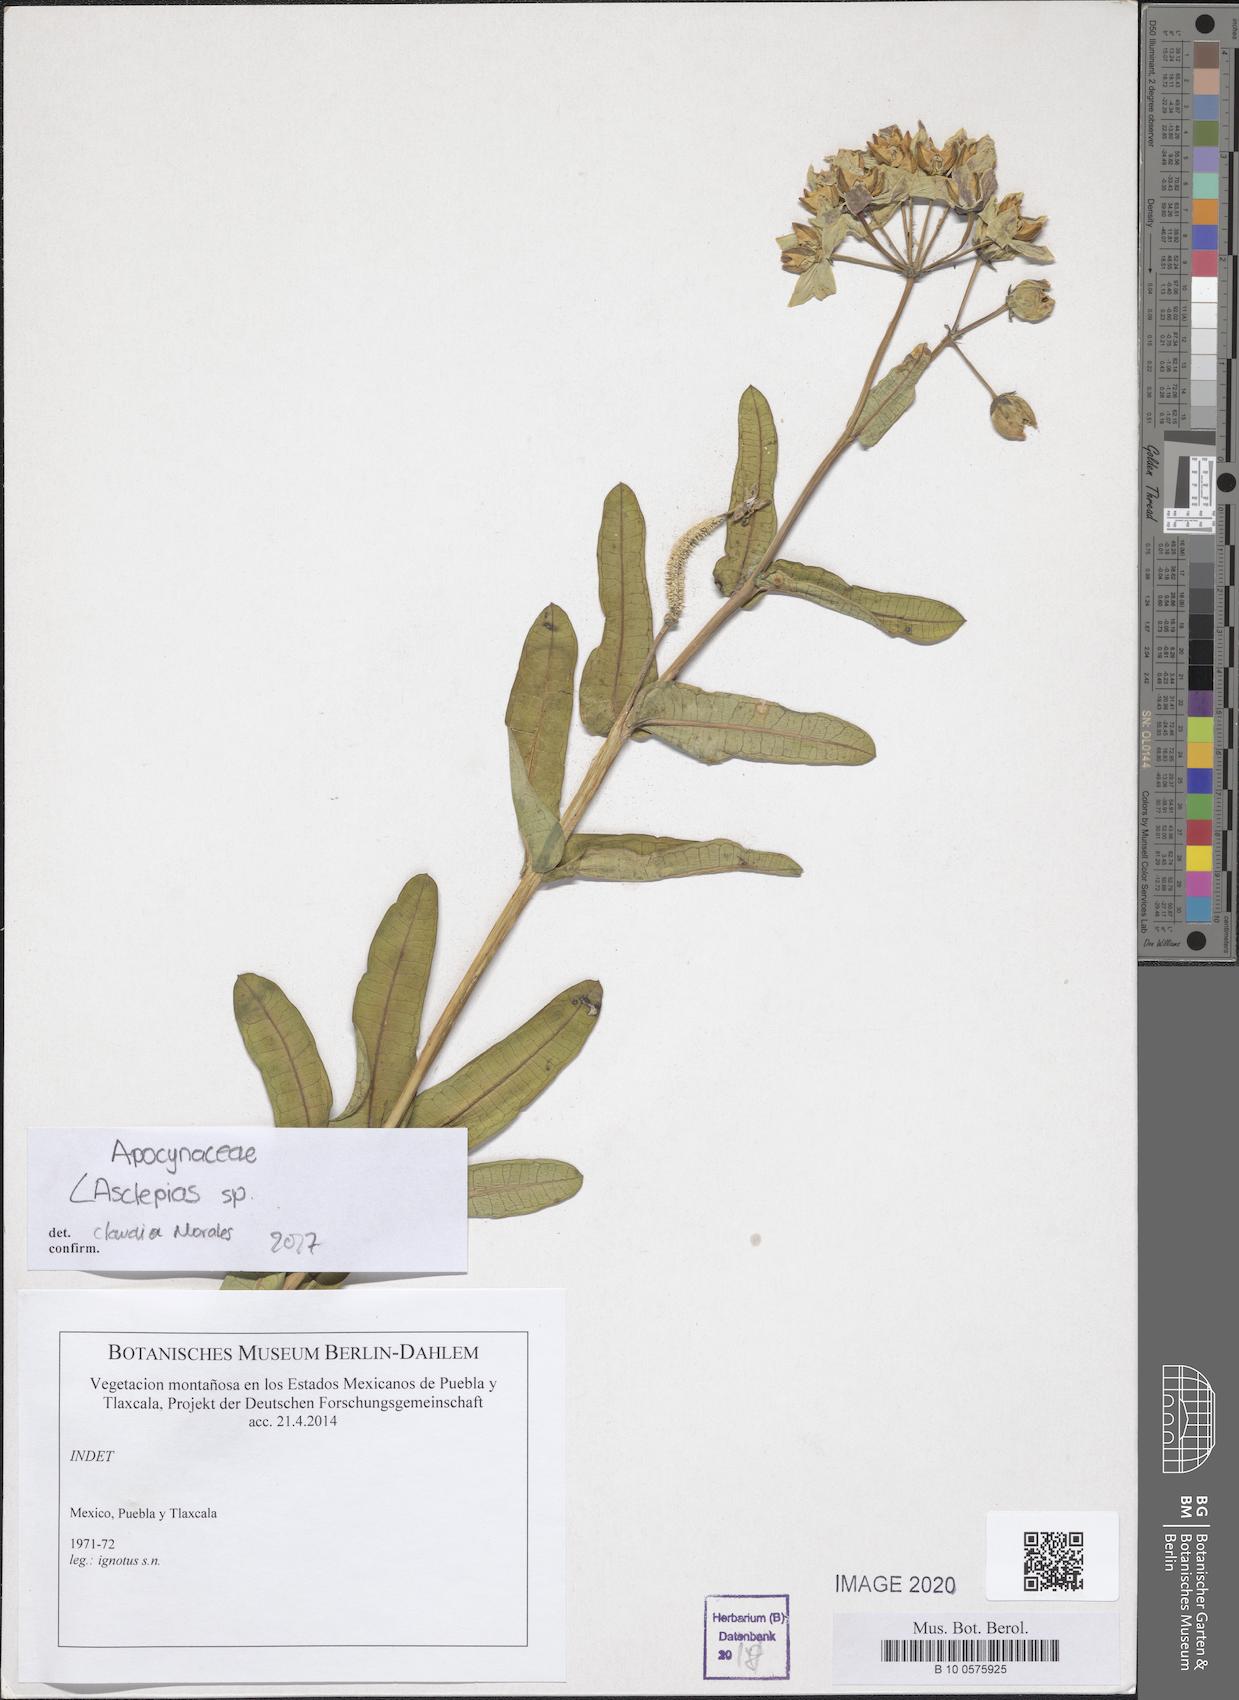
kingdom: Plantae
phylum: Tracheophyta
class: Magnoliopsida
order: Gentianales
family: Apocynaceae
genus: Asclepias
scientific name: Asclepias
